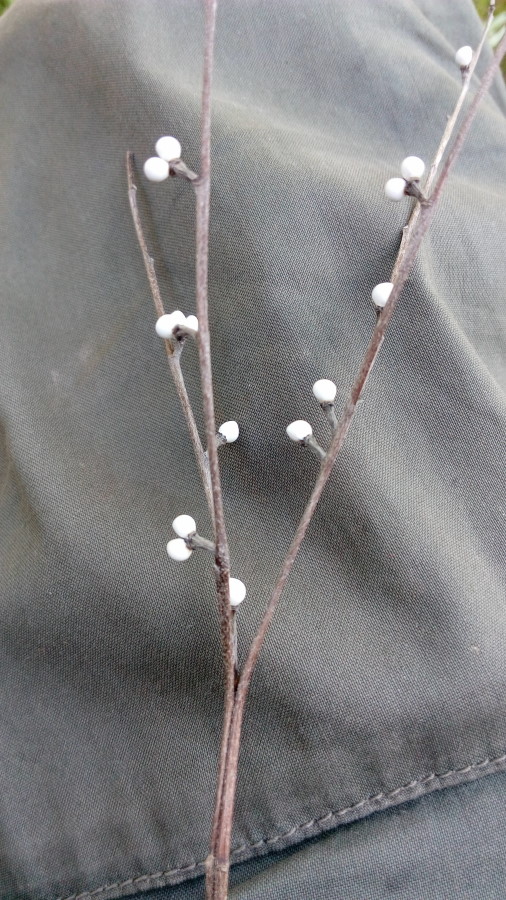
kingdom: Plantae
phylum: Tracheophyta
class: Magnoliopsida
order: Boraginales
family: Boraginaceae
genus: Aegonychon
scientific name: Aegonychon purpurocaeruleum
